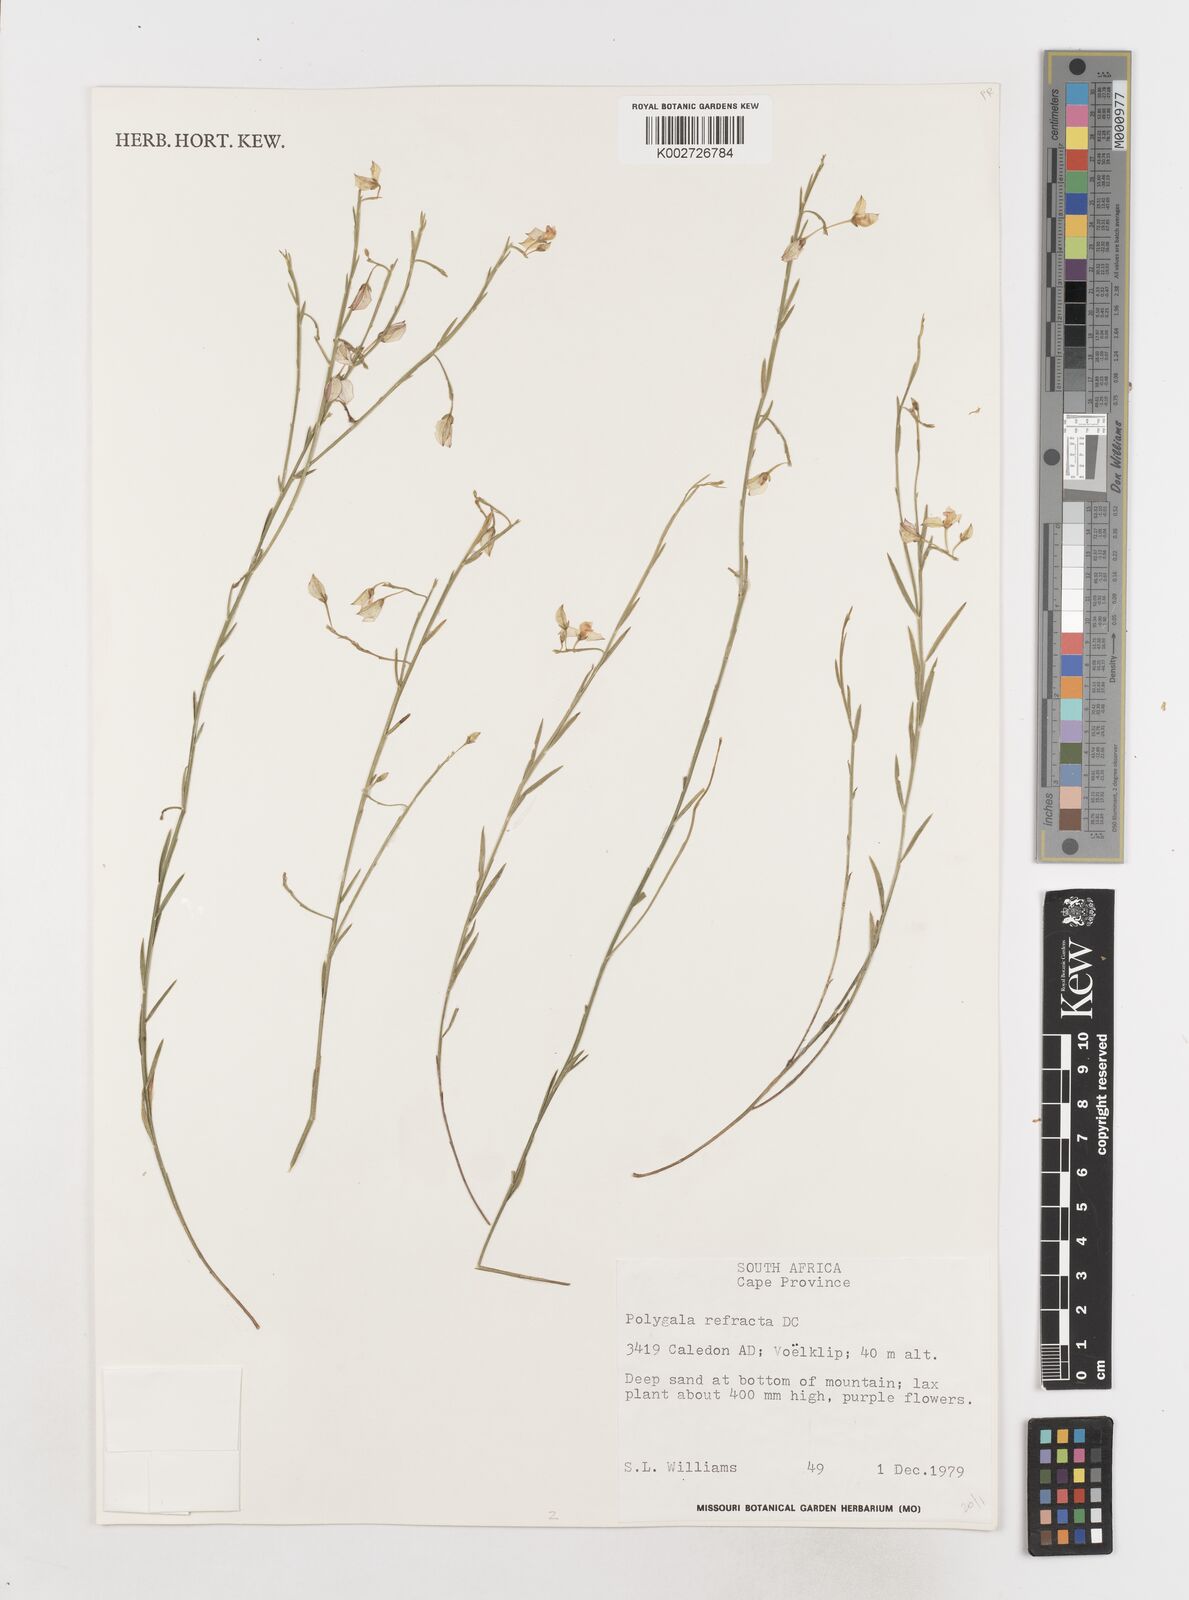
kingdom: Plantae
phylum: Tracheophyta
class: Magnoliopsida
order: Fabales
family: Polygalaceae
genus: Polygala
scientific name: Polygala refracta
